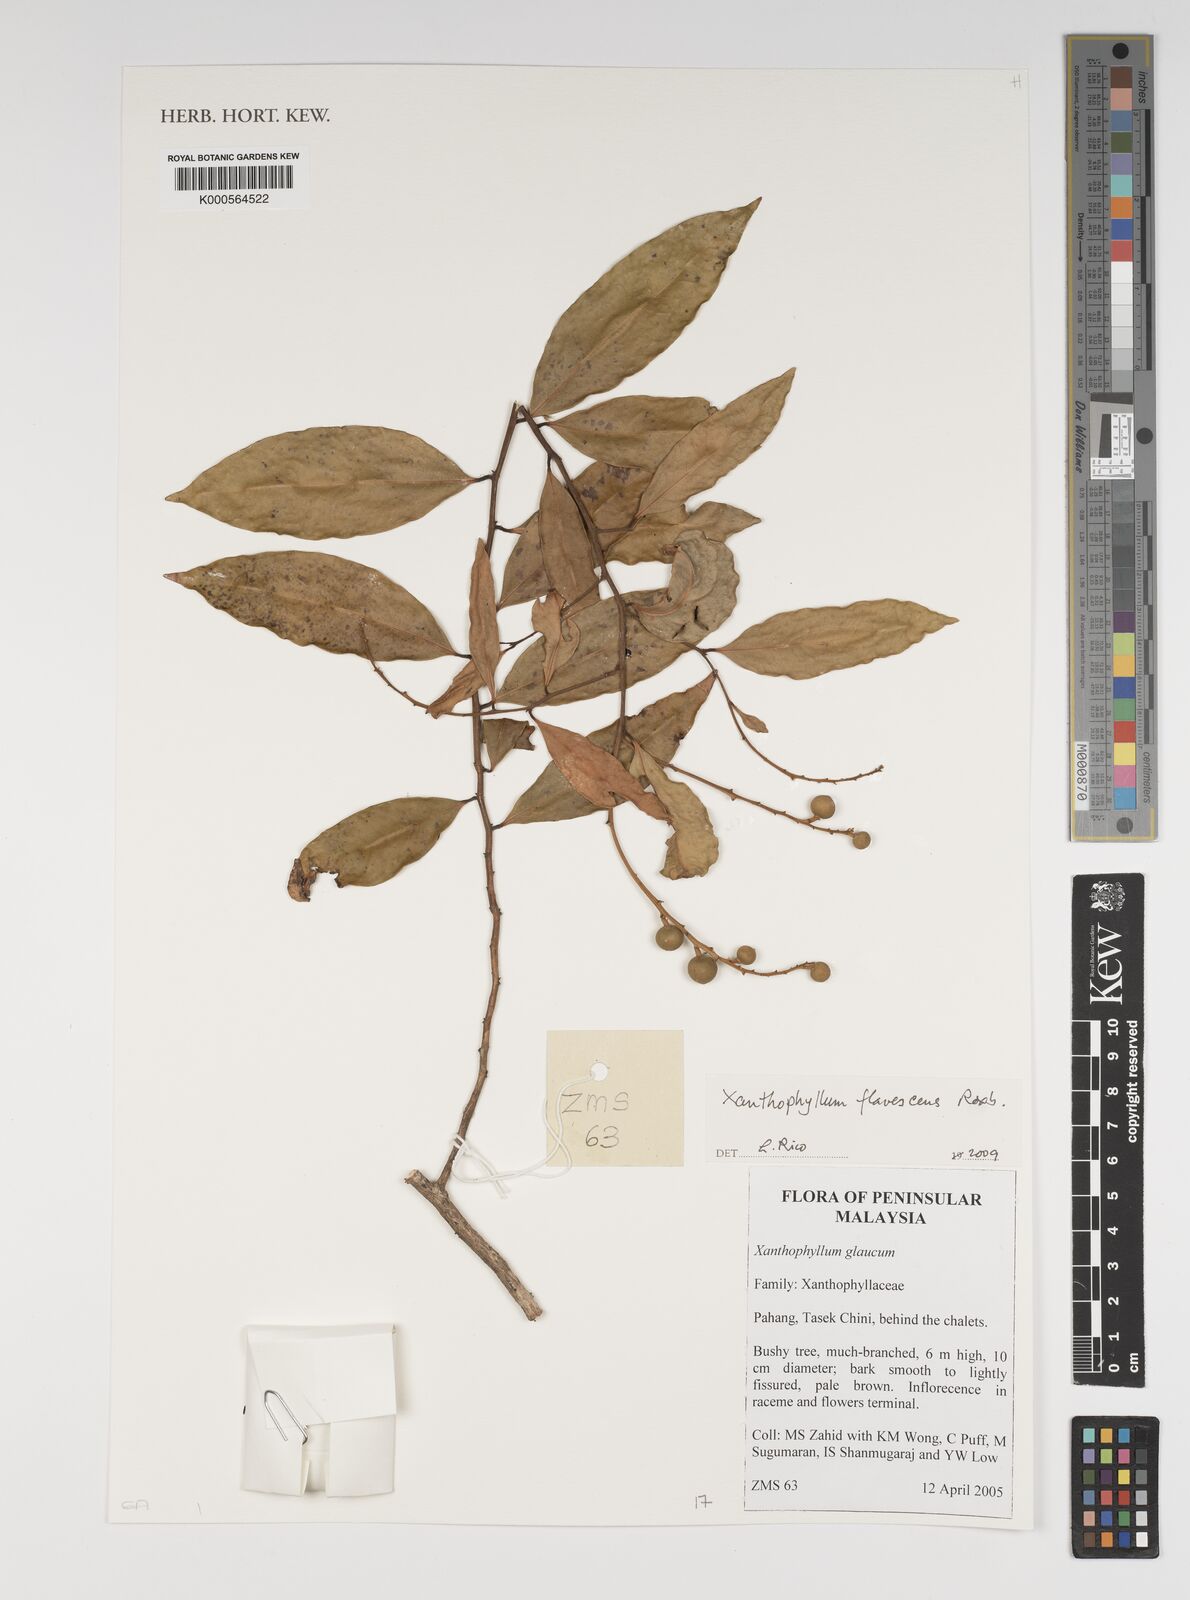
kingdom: Plantae
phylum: Tracheophyta
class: Magnoliopsida
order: Fabales
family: Polygalaceae
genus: Xanthophyllum
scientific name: Xanthophyllum flavescens
